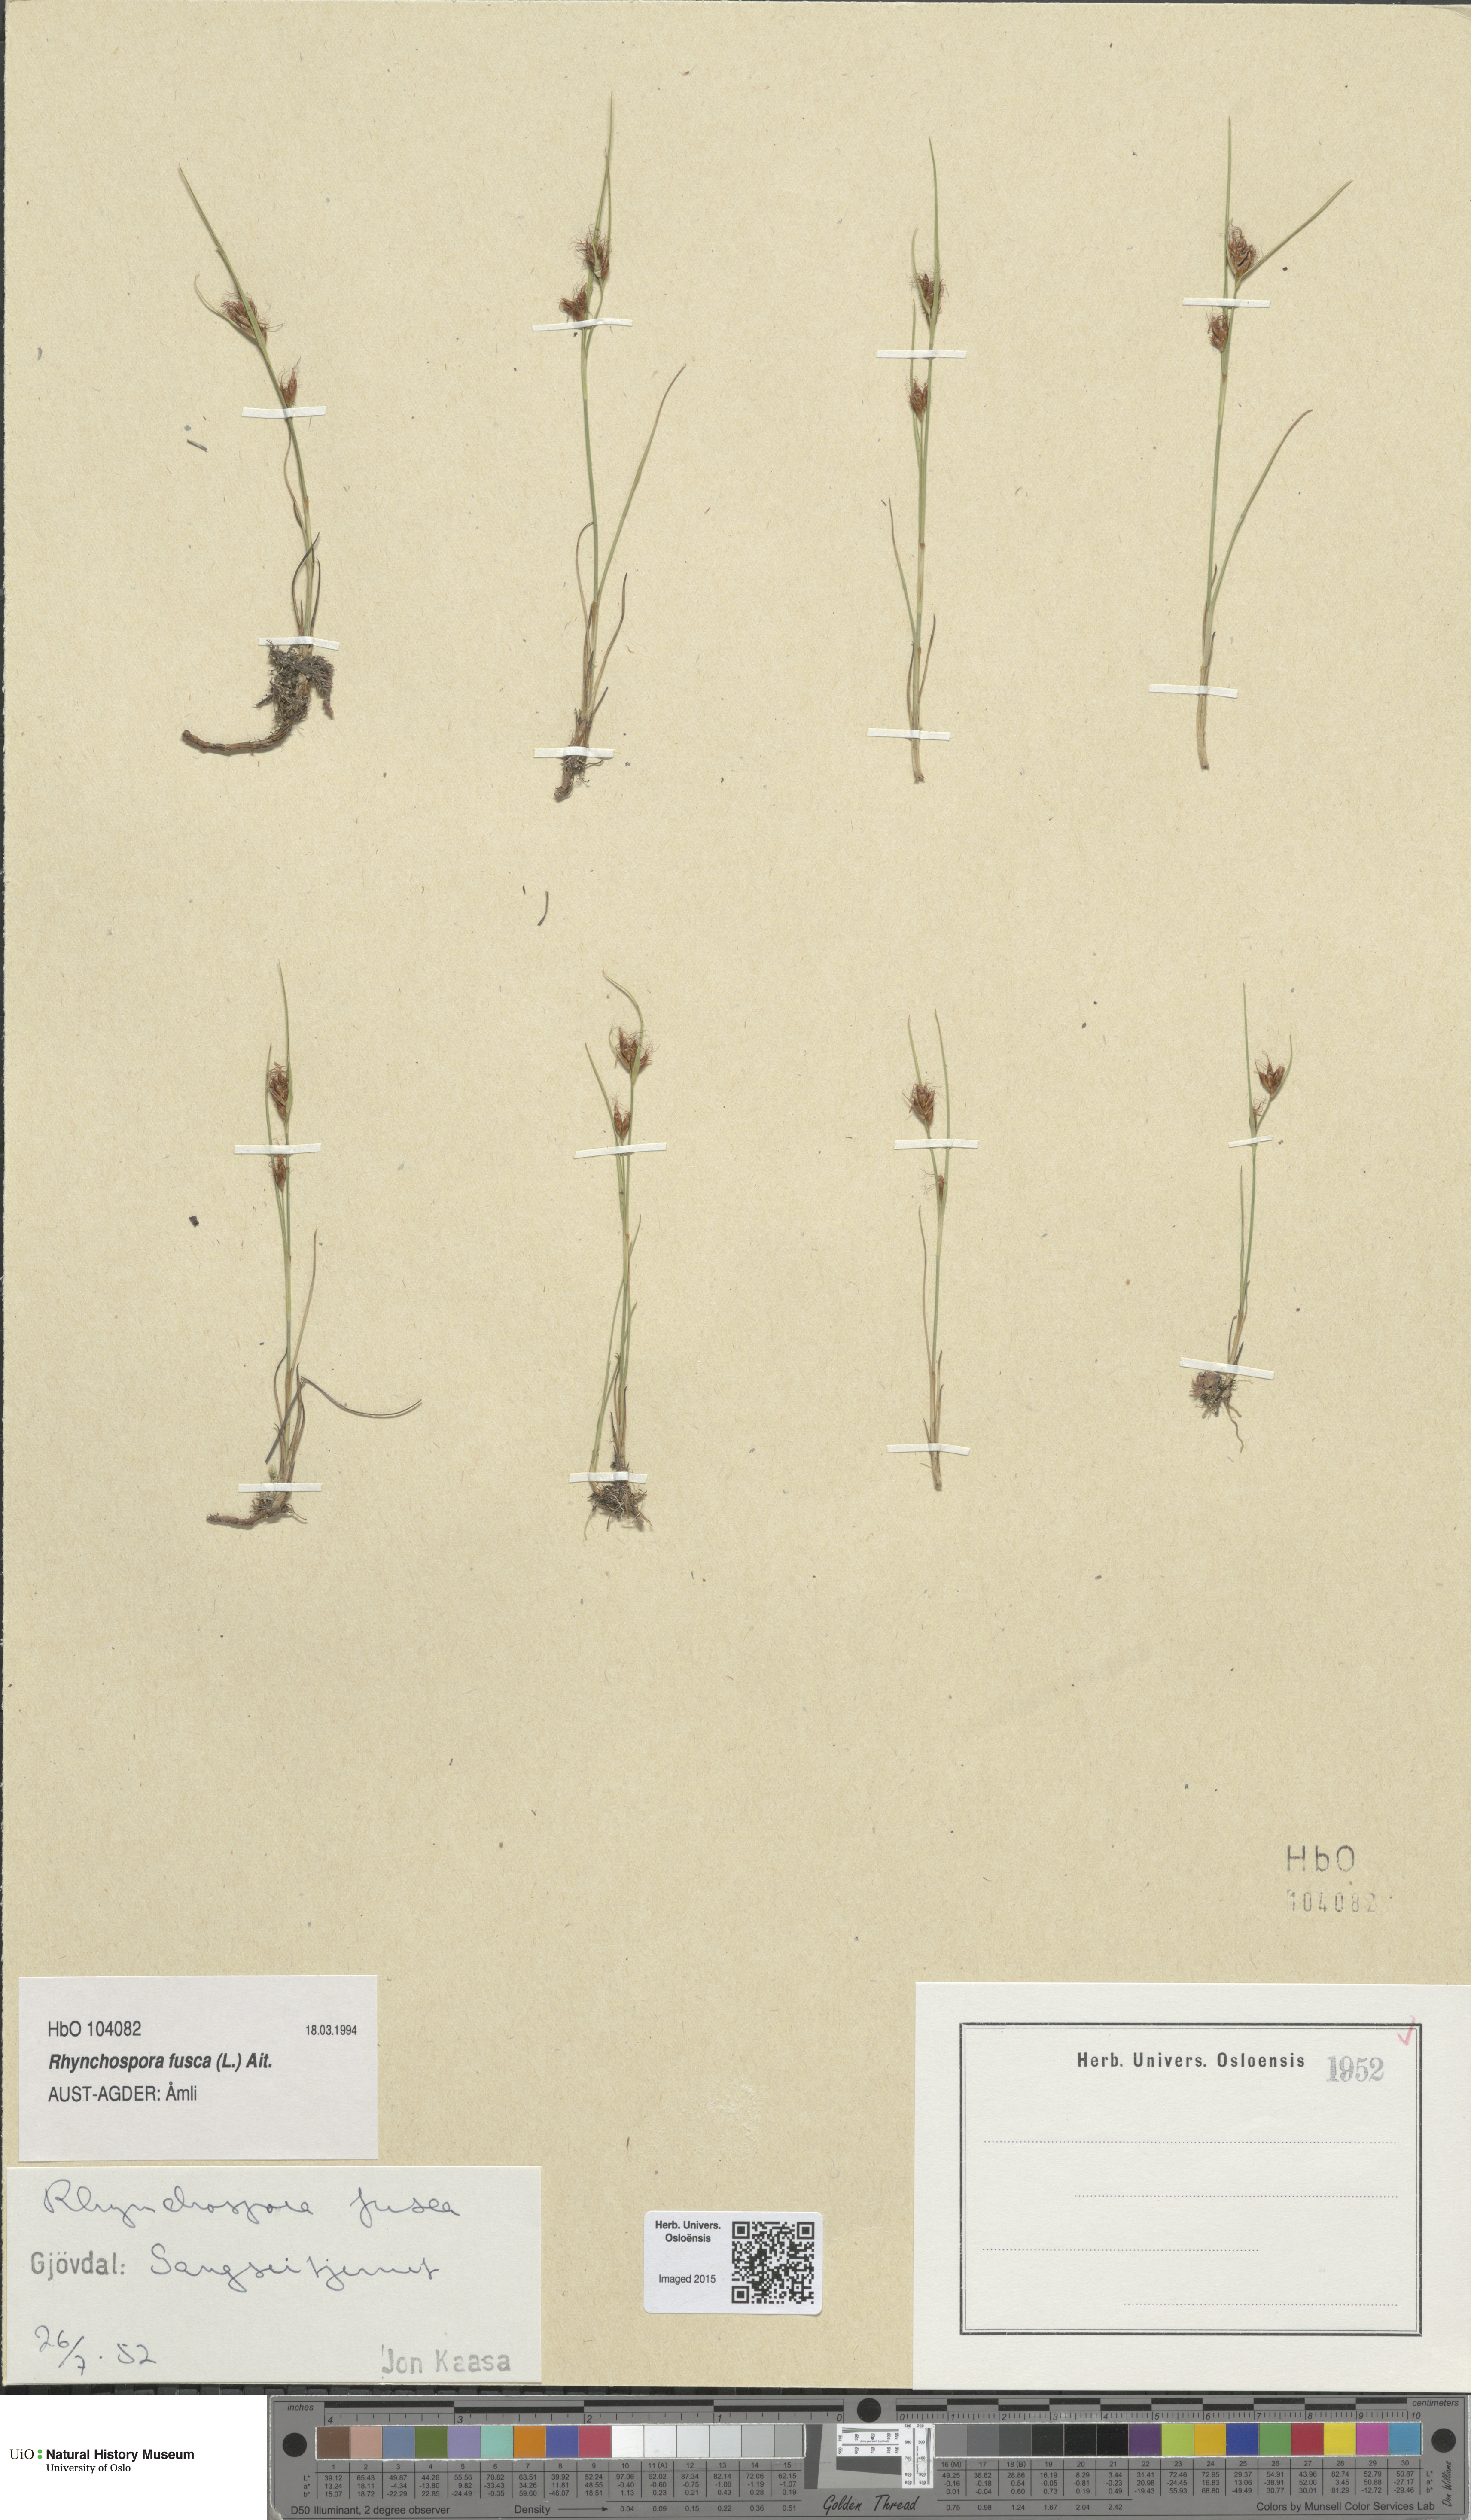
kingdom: Plantae
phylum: Tracheophyta
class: Liliopsida
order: Poales
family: Cyperaceae
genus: Rhynchospora
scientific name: Rhynchospora fusca
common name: Brown beak-sedge
